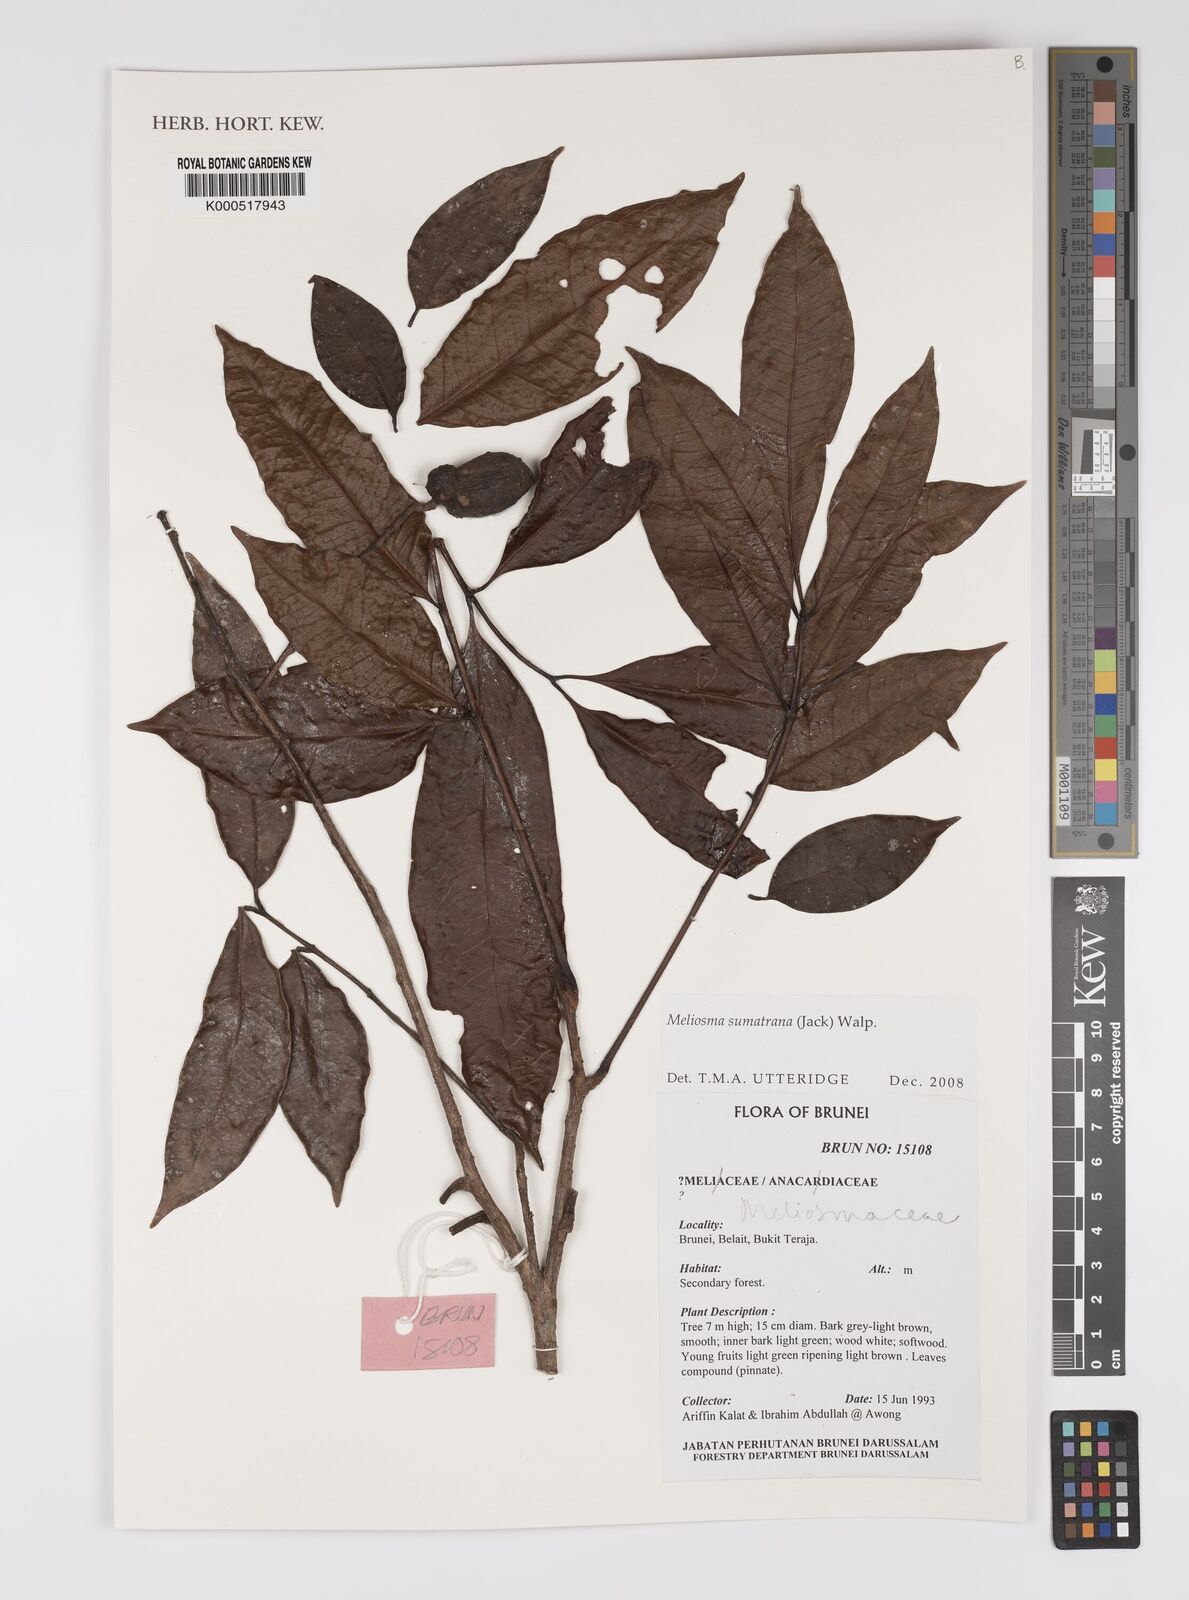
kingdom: Plantae
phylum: Tracheophyta
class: Magnoliopsida
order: Proteales
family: Sabiaceae
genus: Meliosma
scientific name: Meliosma sumatrana
